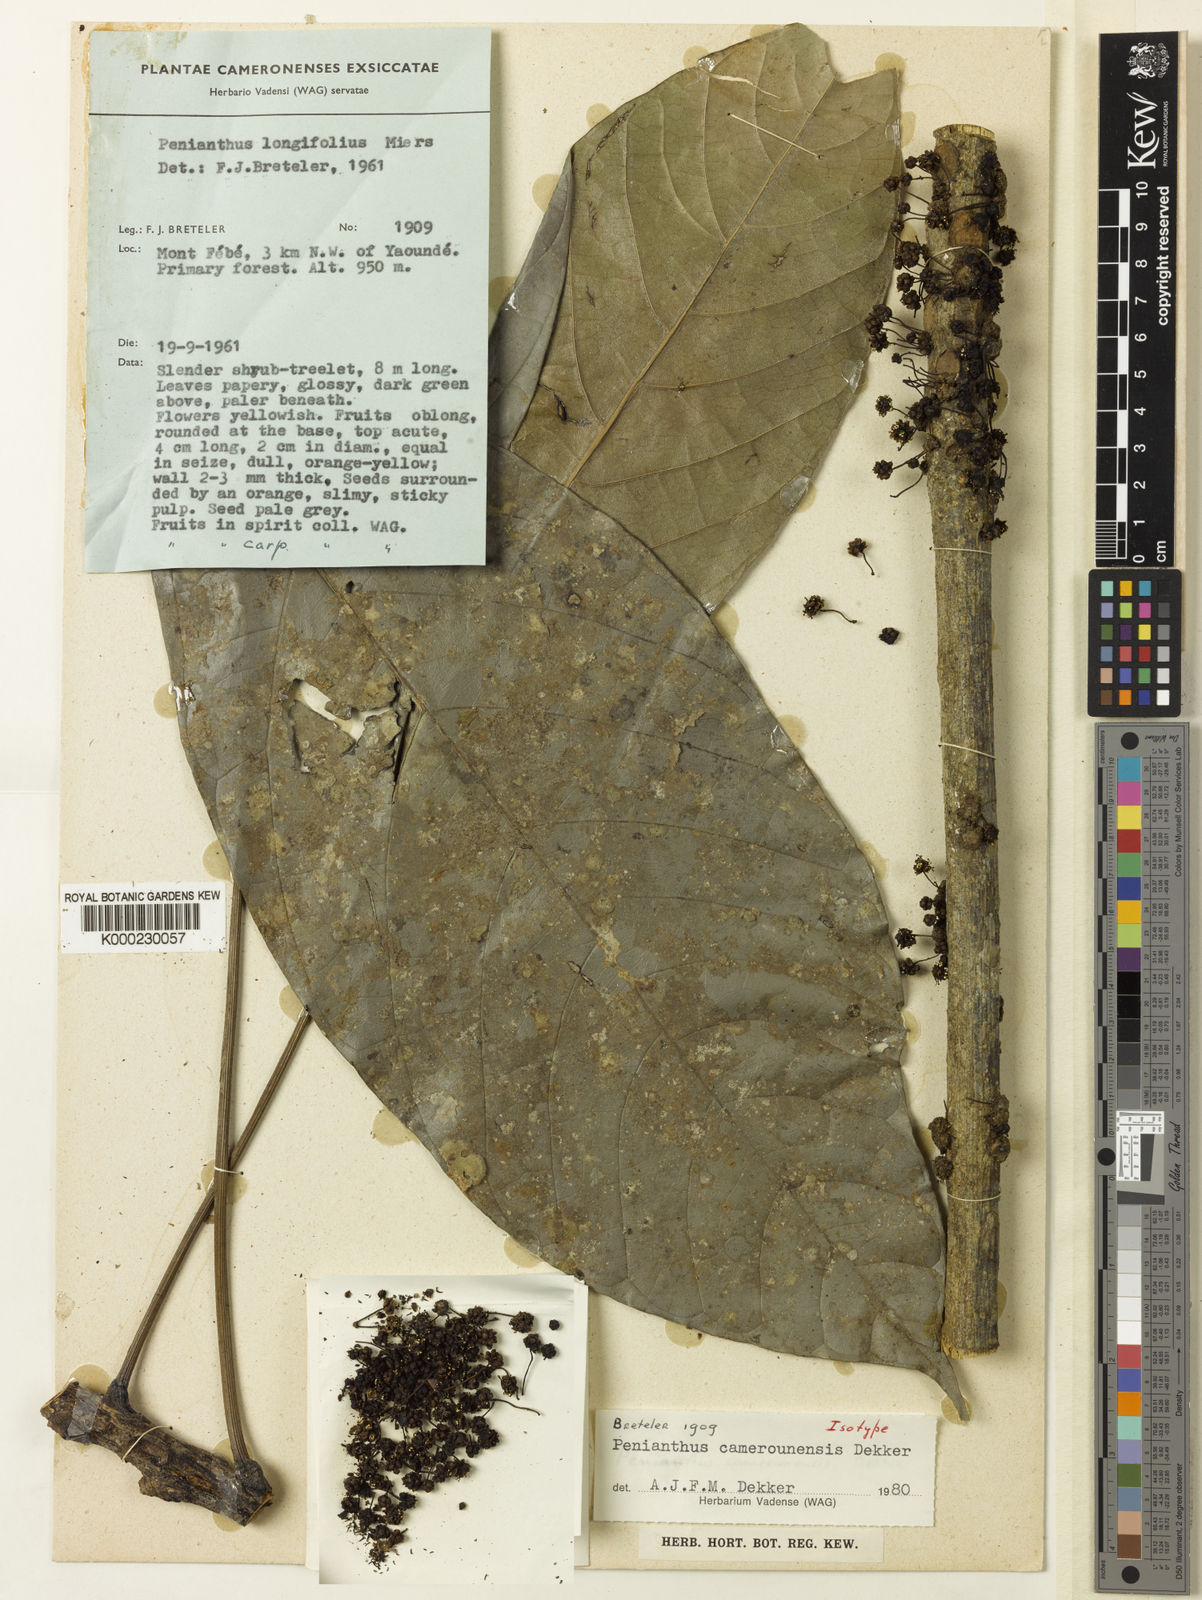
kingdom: Plantae
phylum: Tracheophyta
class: Magnoliopsida
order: Ranunculales
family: Menispermaceae
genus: Penianthus
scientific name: Penianthus camerounensis
